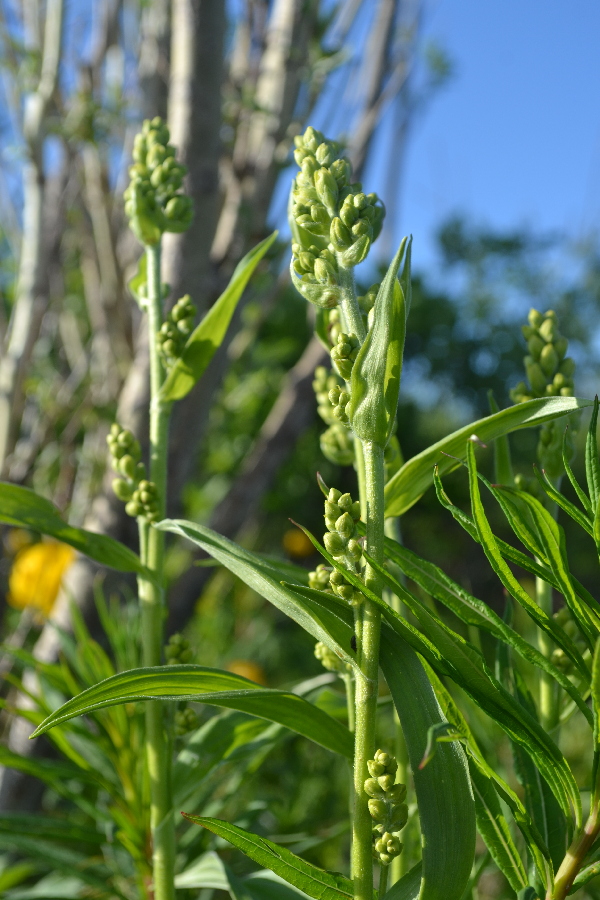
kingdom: Plantae
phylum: Tracheophyta
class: Liliopsida
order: Liliales
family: Melanthiaceae
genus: Veratrum
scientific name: Veratrum lobelianum
